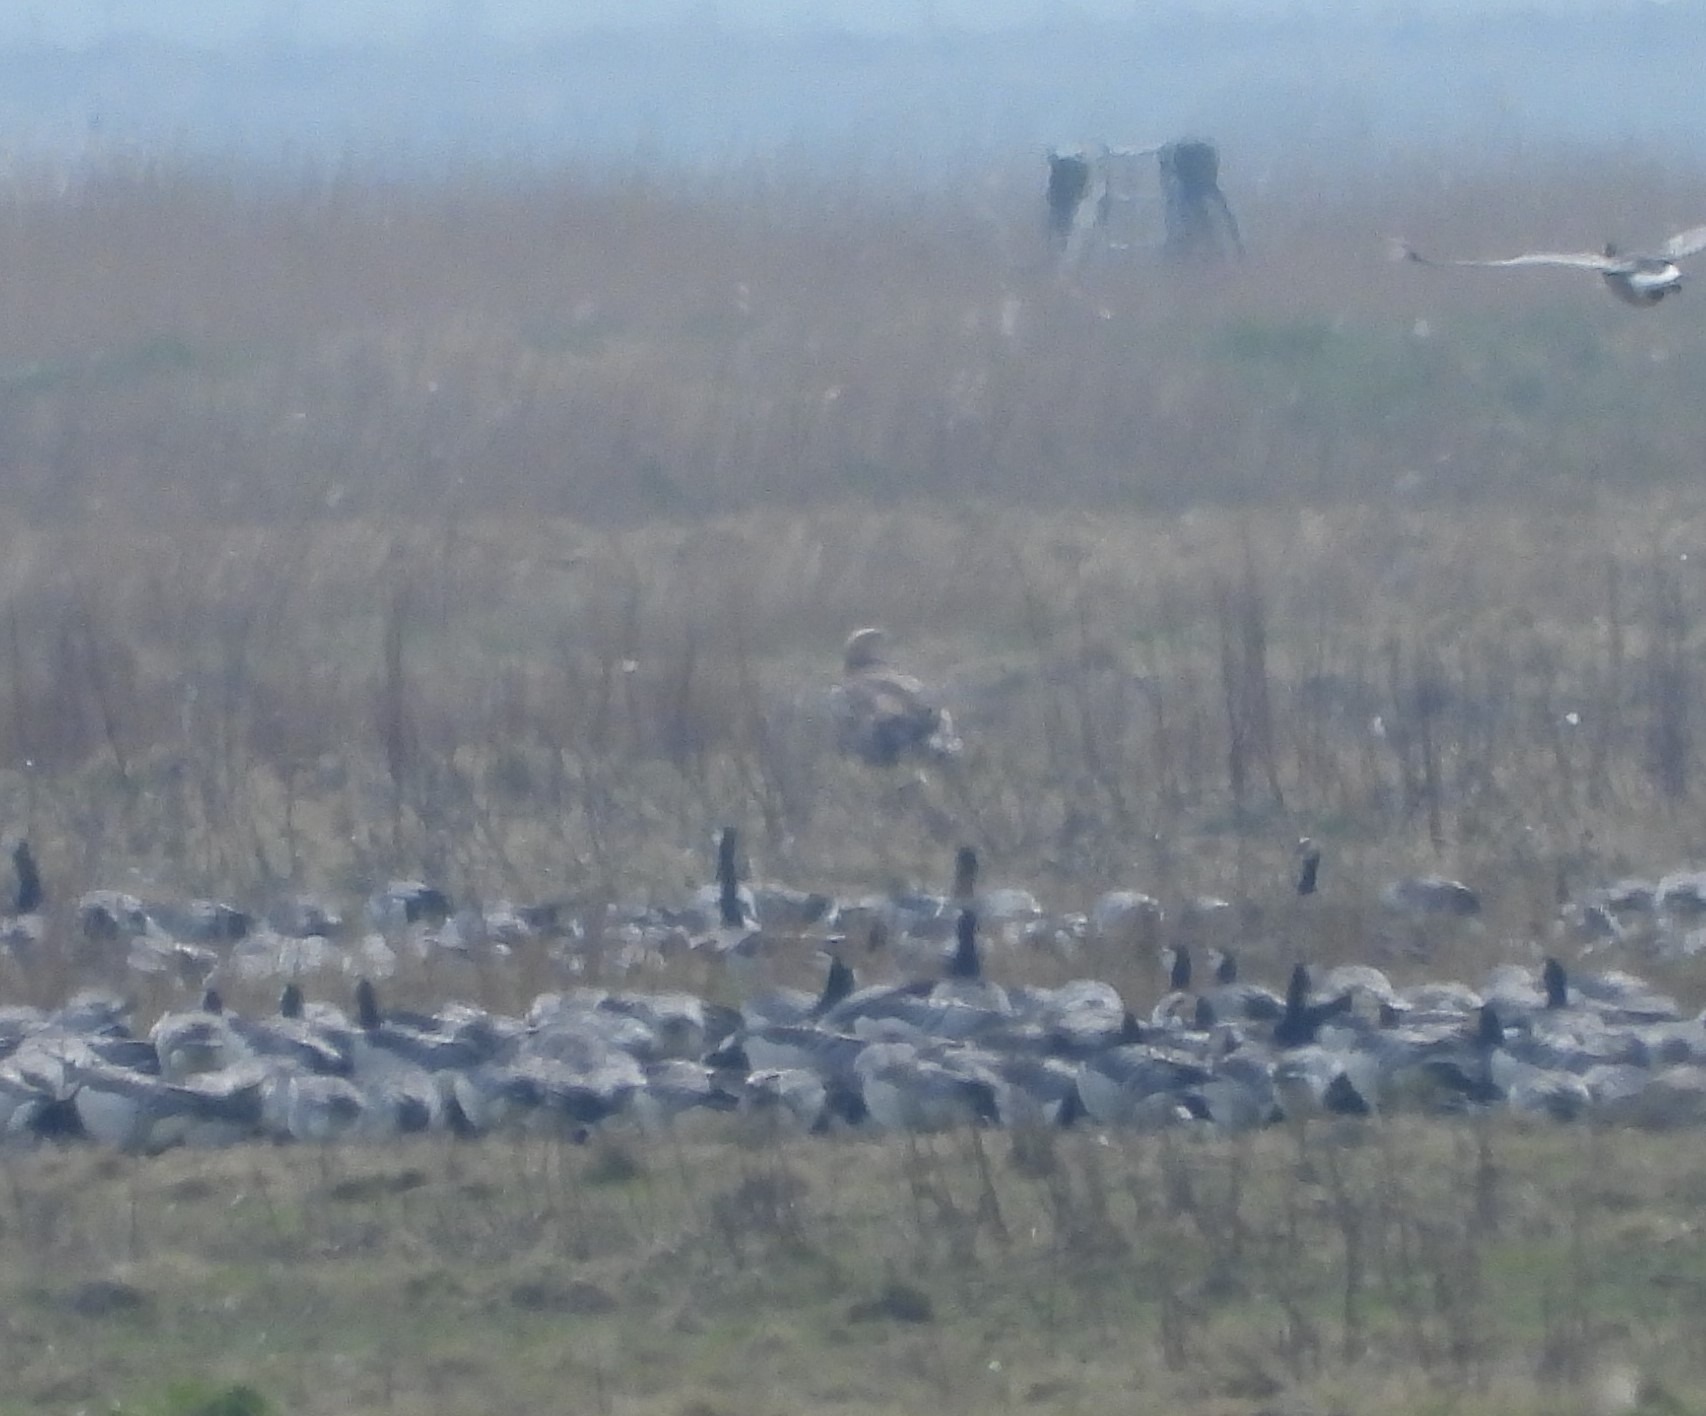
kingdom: Animalia
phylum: Chordata
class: Aves
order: Accipitriformes
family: Accipitridae
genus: Haliaeetus
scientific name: Haliaeetus albicilla
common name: Havørn
